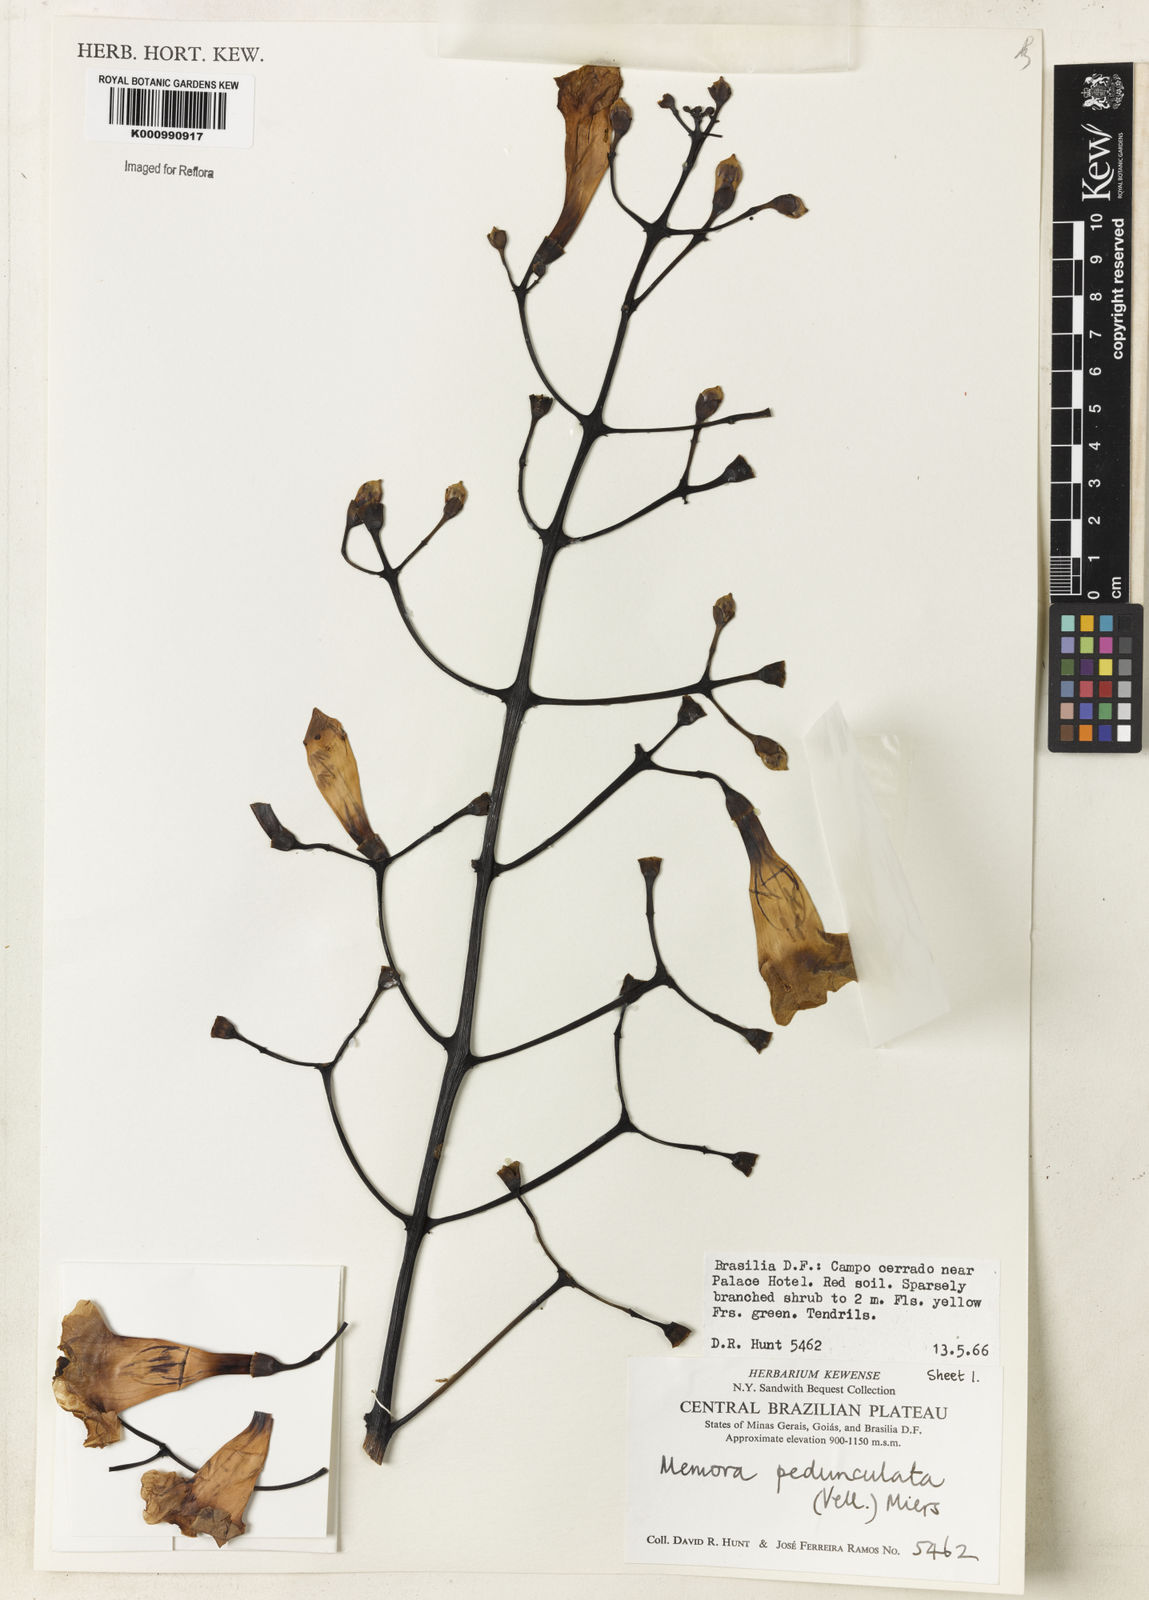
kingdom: Plantae
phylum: Tracheophyta
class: Magnoliopsida
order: Lamiales
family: Bignoniaceae
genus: Adenocalymma
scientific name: Adenocalymma pedunculatum
